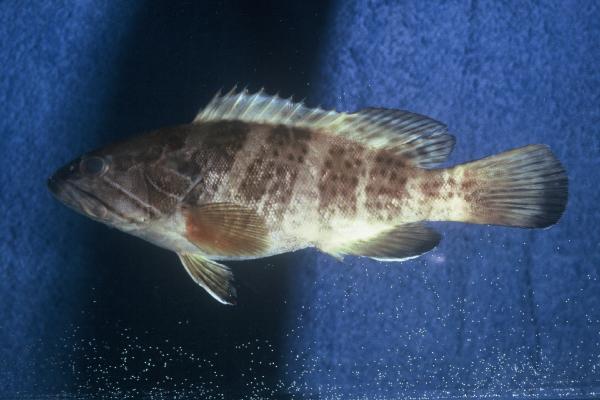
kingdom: Animalia
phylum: Chordata
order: Perciformes
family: Serranidae
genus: Epinephelus
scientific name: Epinephelus aeneus
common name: White grouper
